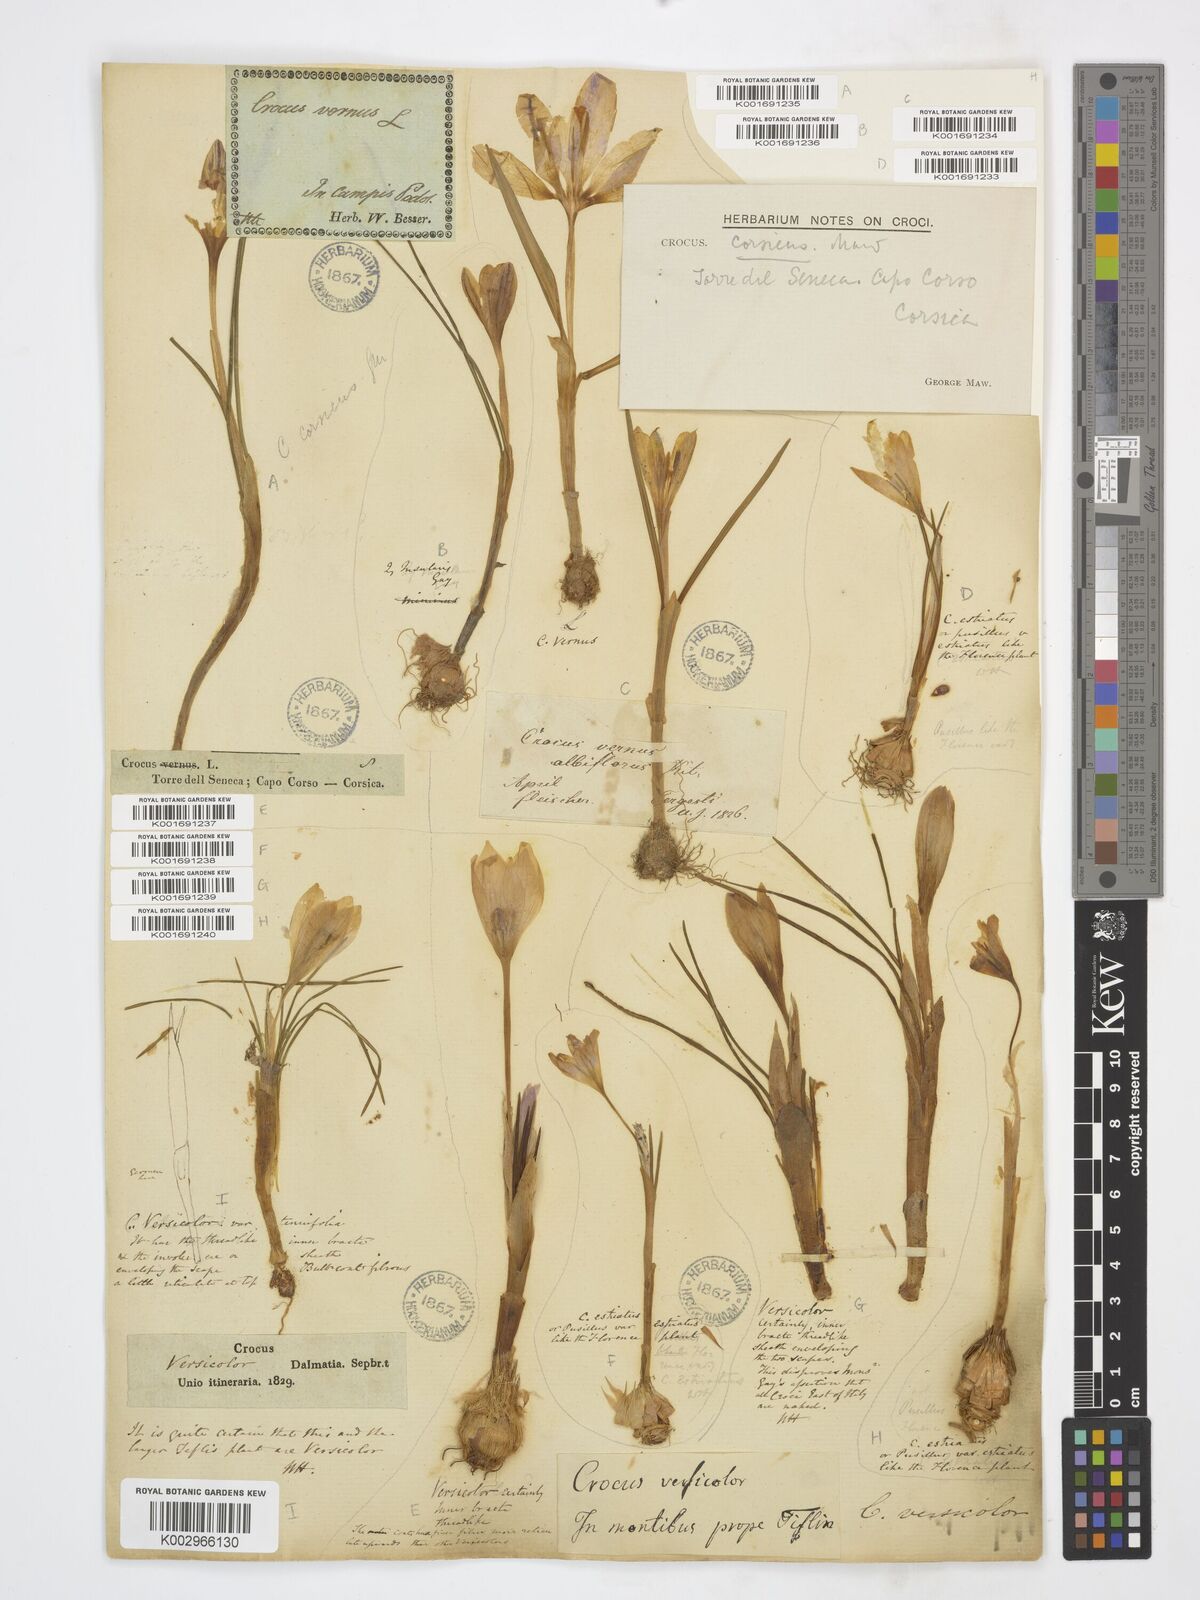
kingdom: Plantae
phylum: Tracheophyta
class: Liliopsida
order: Asparagales
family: Iridaceae
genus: Crocus
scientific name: Crocus versicolor
